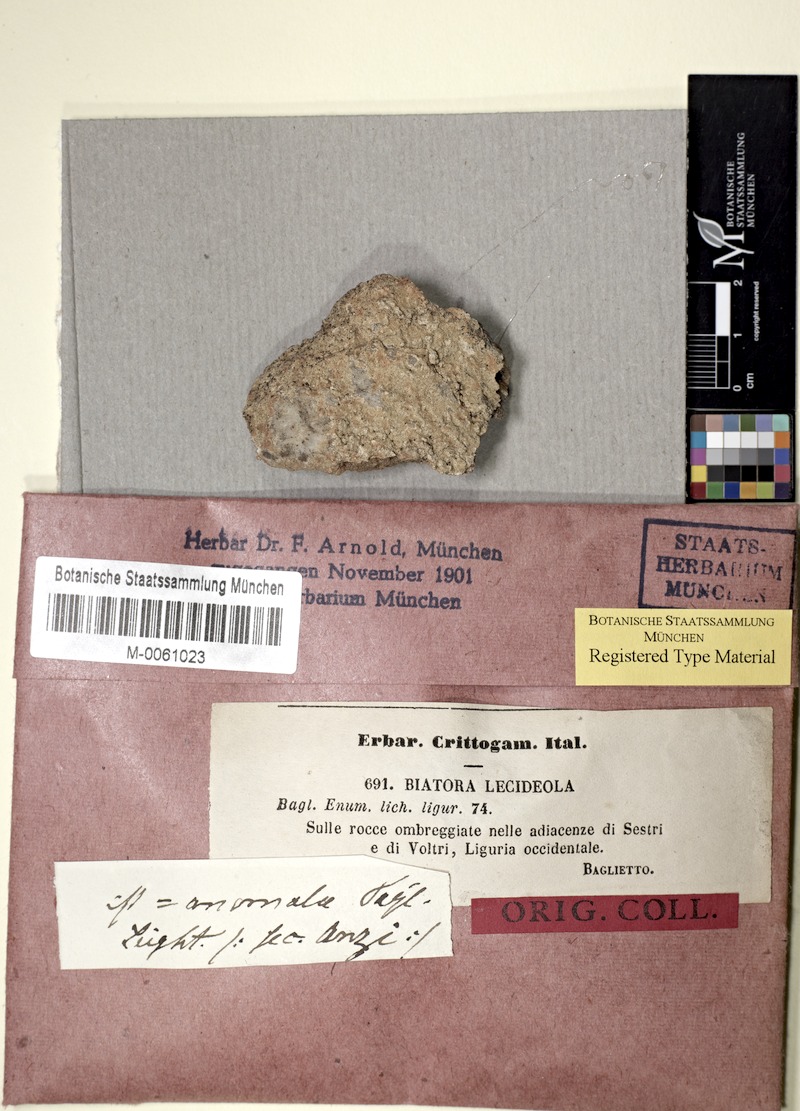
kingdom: Fungi
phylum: Ascomycota
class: Lecanoromycetes
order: Lecanorales
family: Ramalinaceae
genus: Biatora
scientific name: Biatora lecideola
